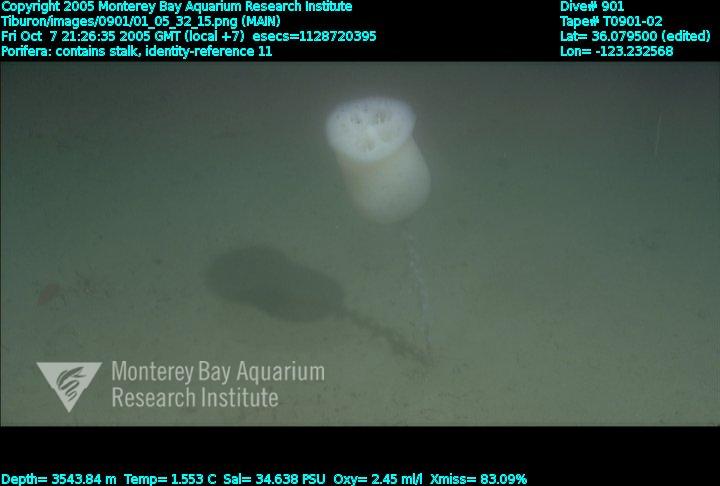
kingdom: Animalia
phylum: Porifera
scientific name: Porifera
